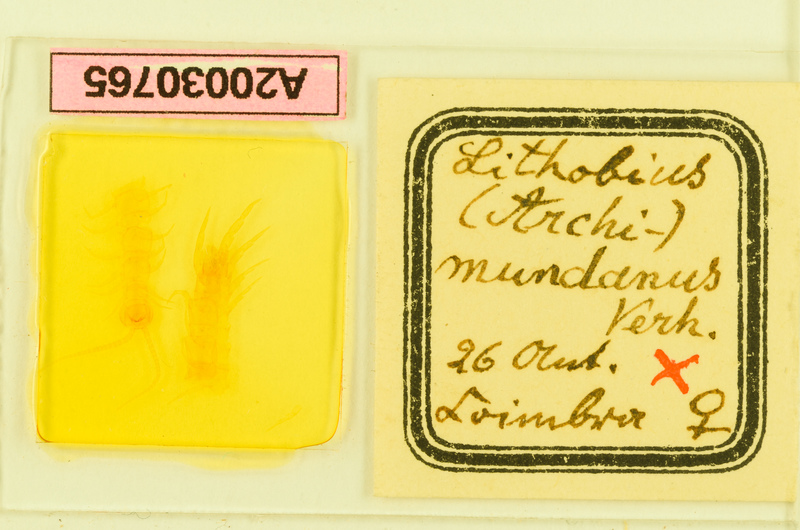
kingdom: Animalia
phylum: Arthropoda
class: Chilopoda
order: Lithobiomorpha
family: Lithobiidae
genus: Lithobius
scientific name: Lithobius mucronatus
